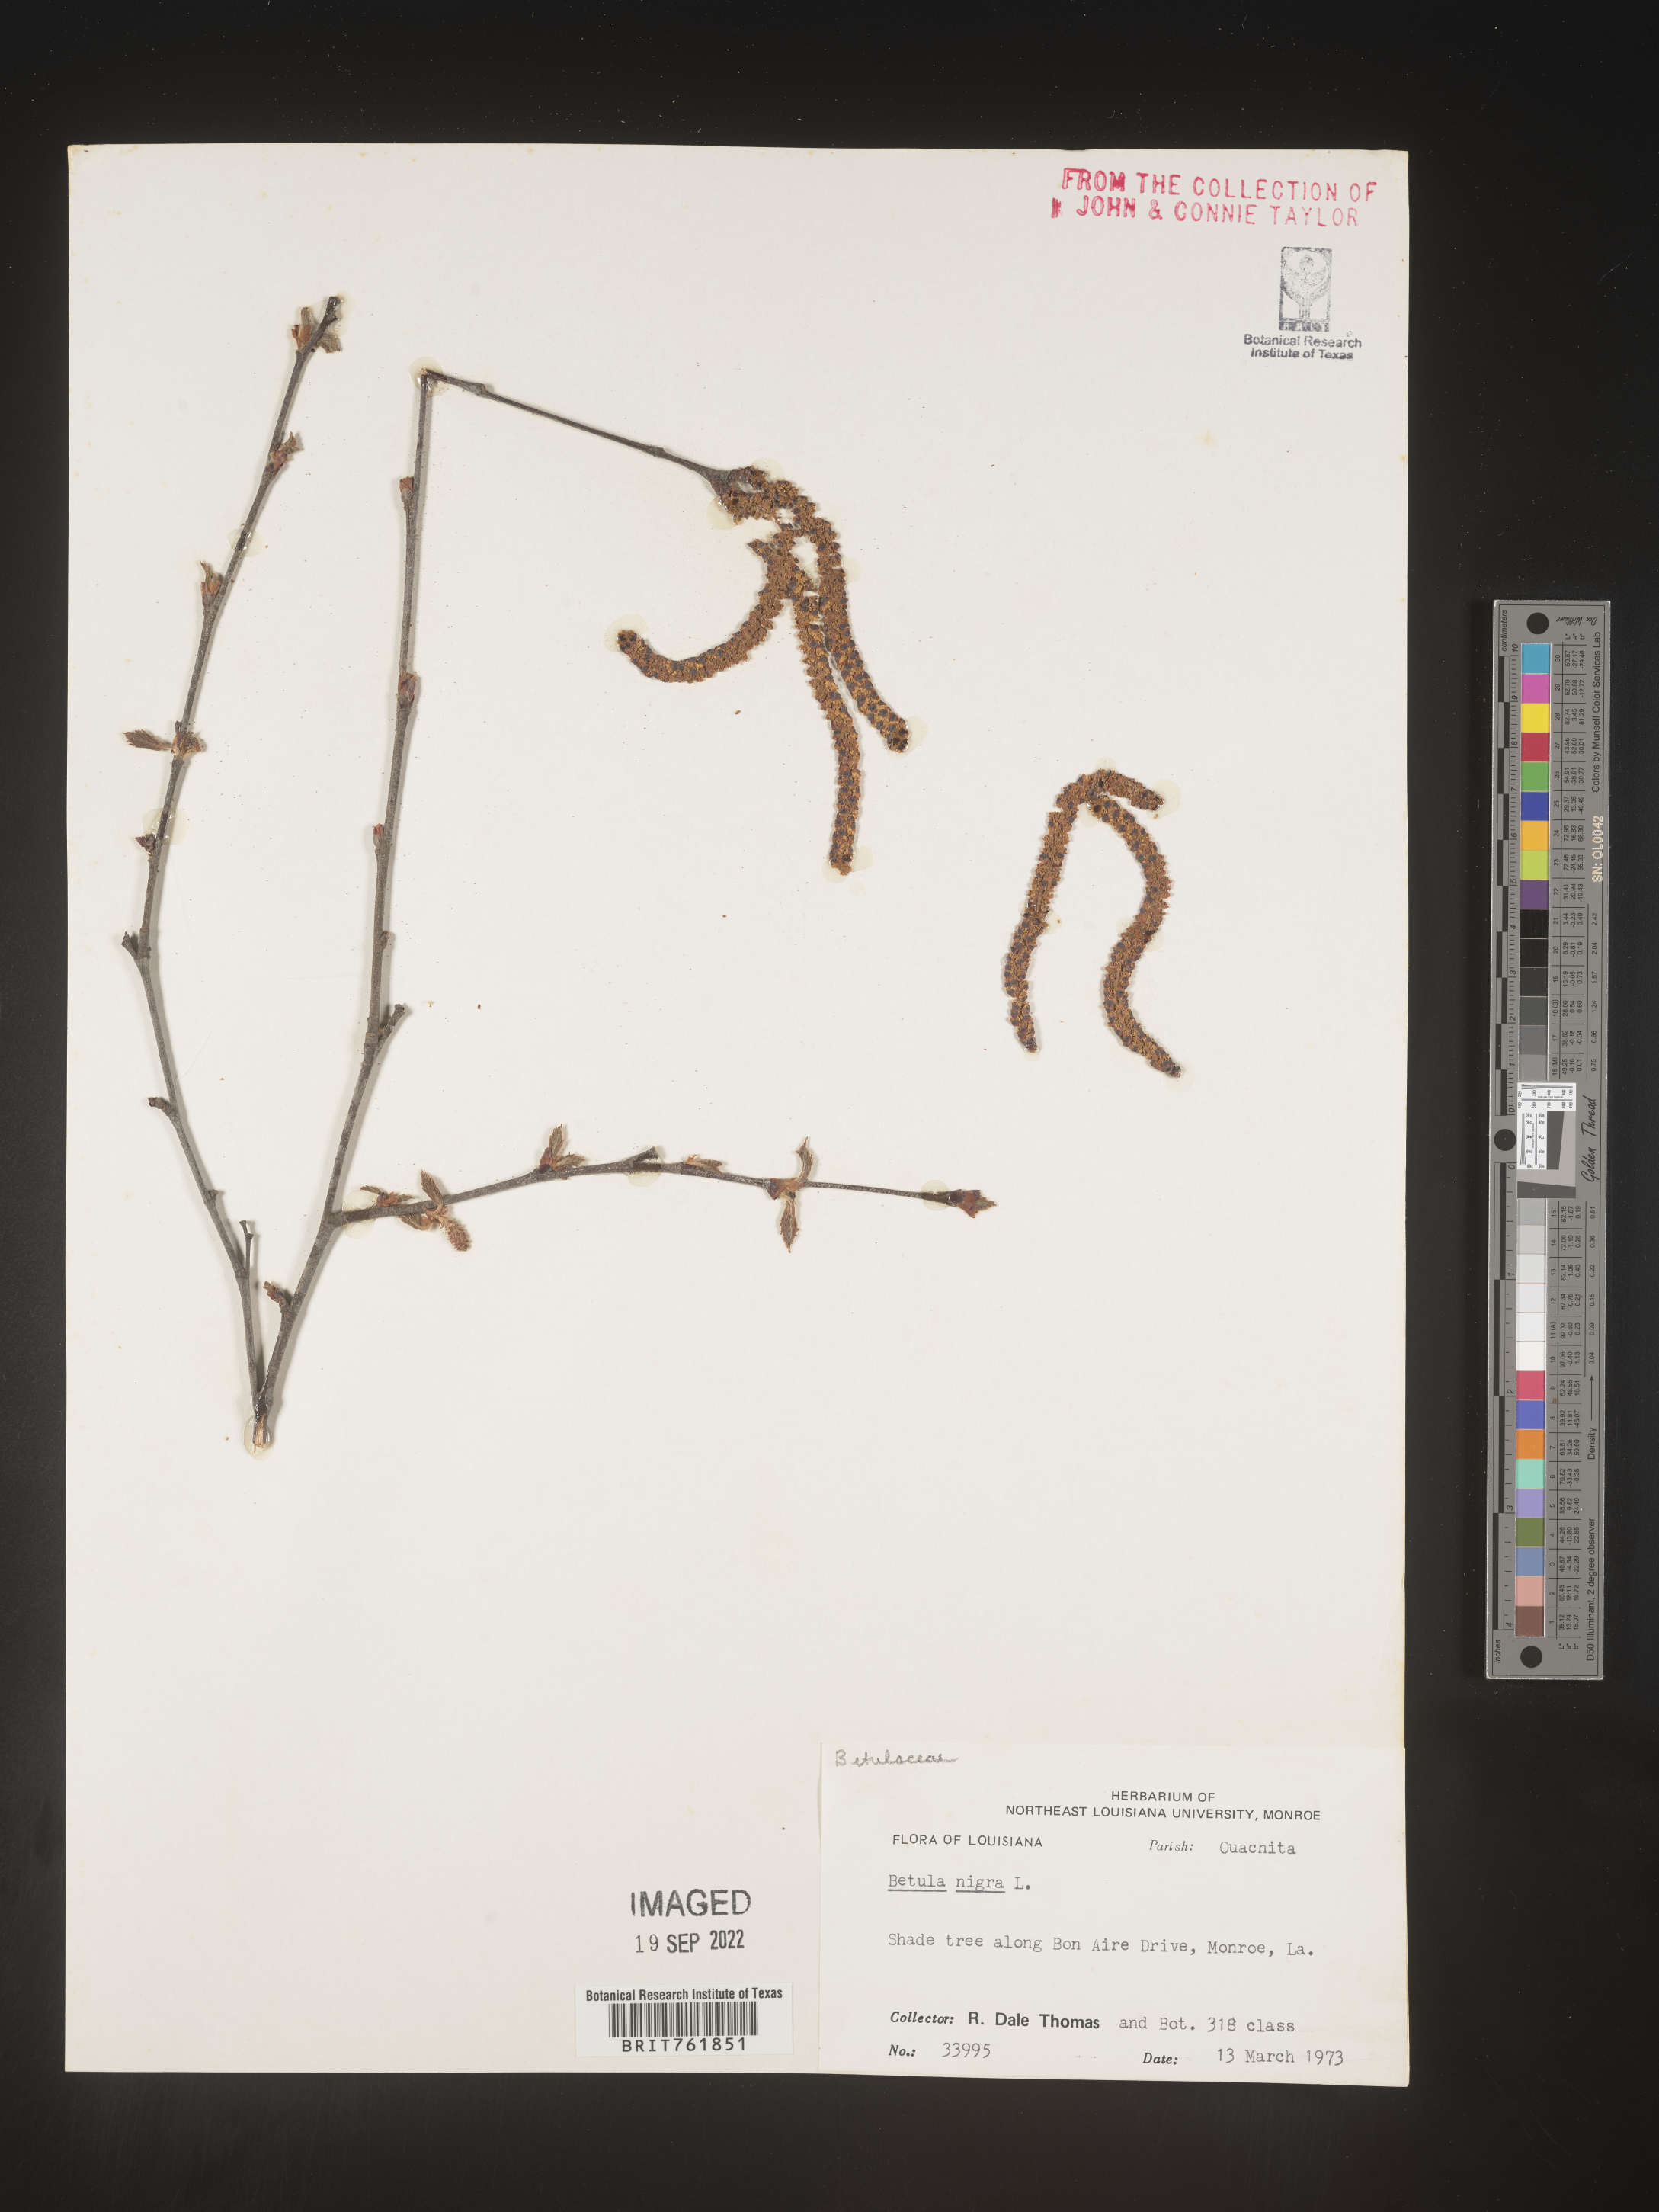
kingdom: Plantae
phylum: Tracheophyta
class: Magnoliopsida
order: Fagales
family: Betulaceae
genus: Betula
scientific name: Betula nigra
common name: Black birch
